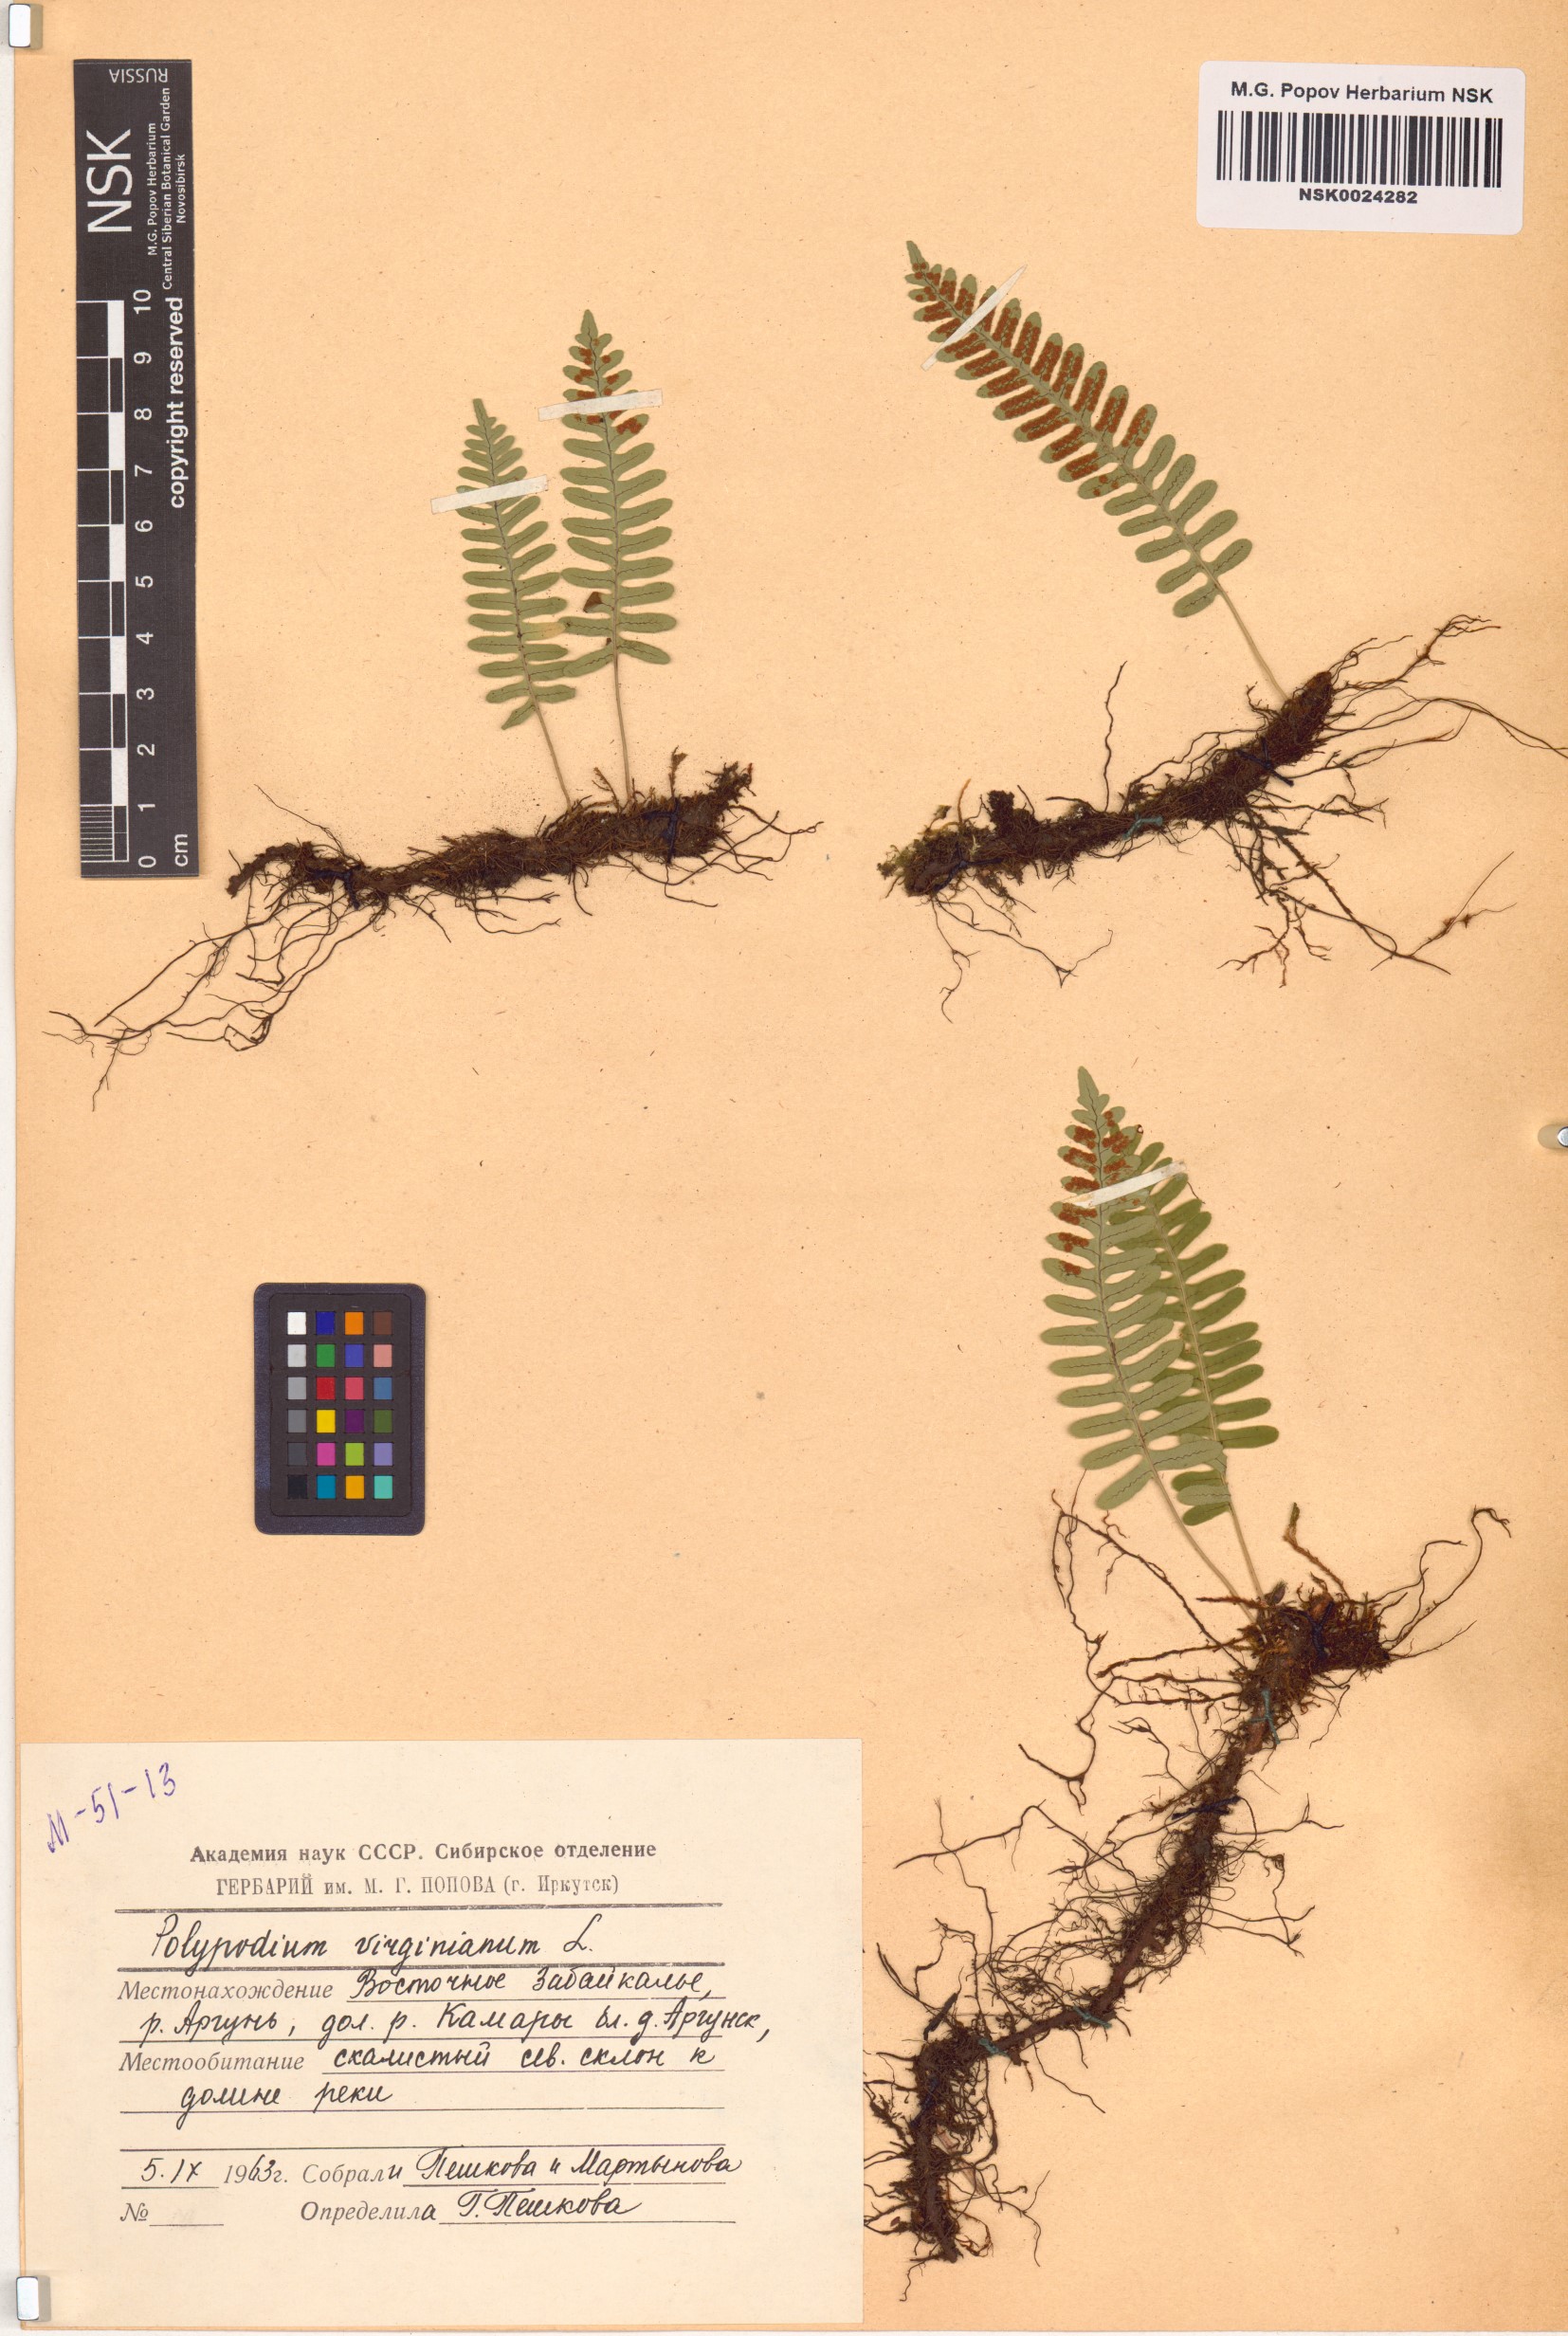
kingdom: Plantae
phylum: Tracheophyta
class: Polypodiopsida
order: Polypodiales
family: Polypodiaceae
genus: Polypodium
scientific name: Polypodium virginianum
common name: American wall fern
